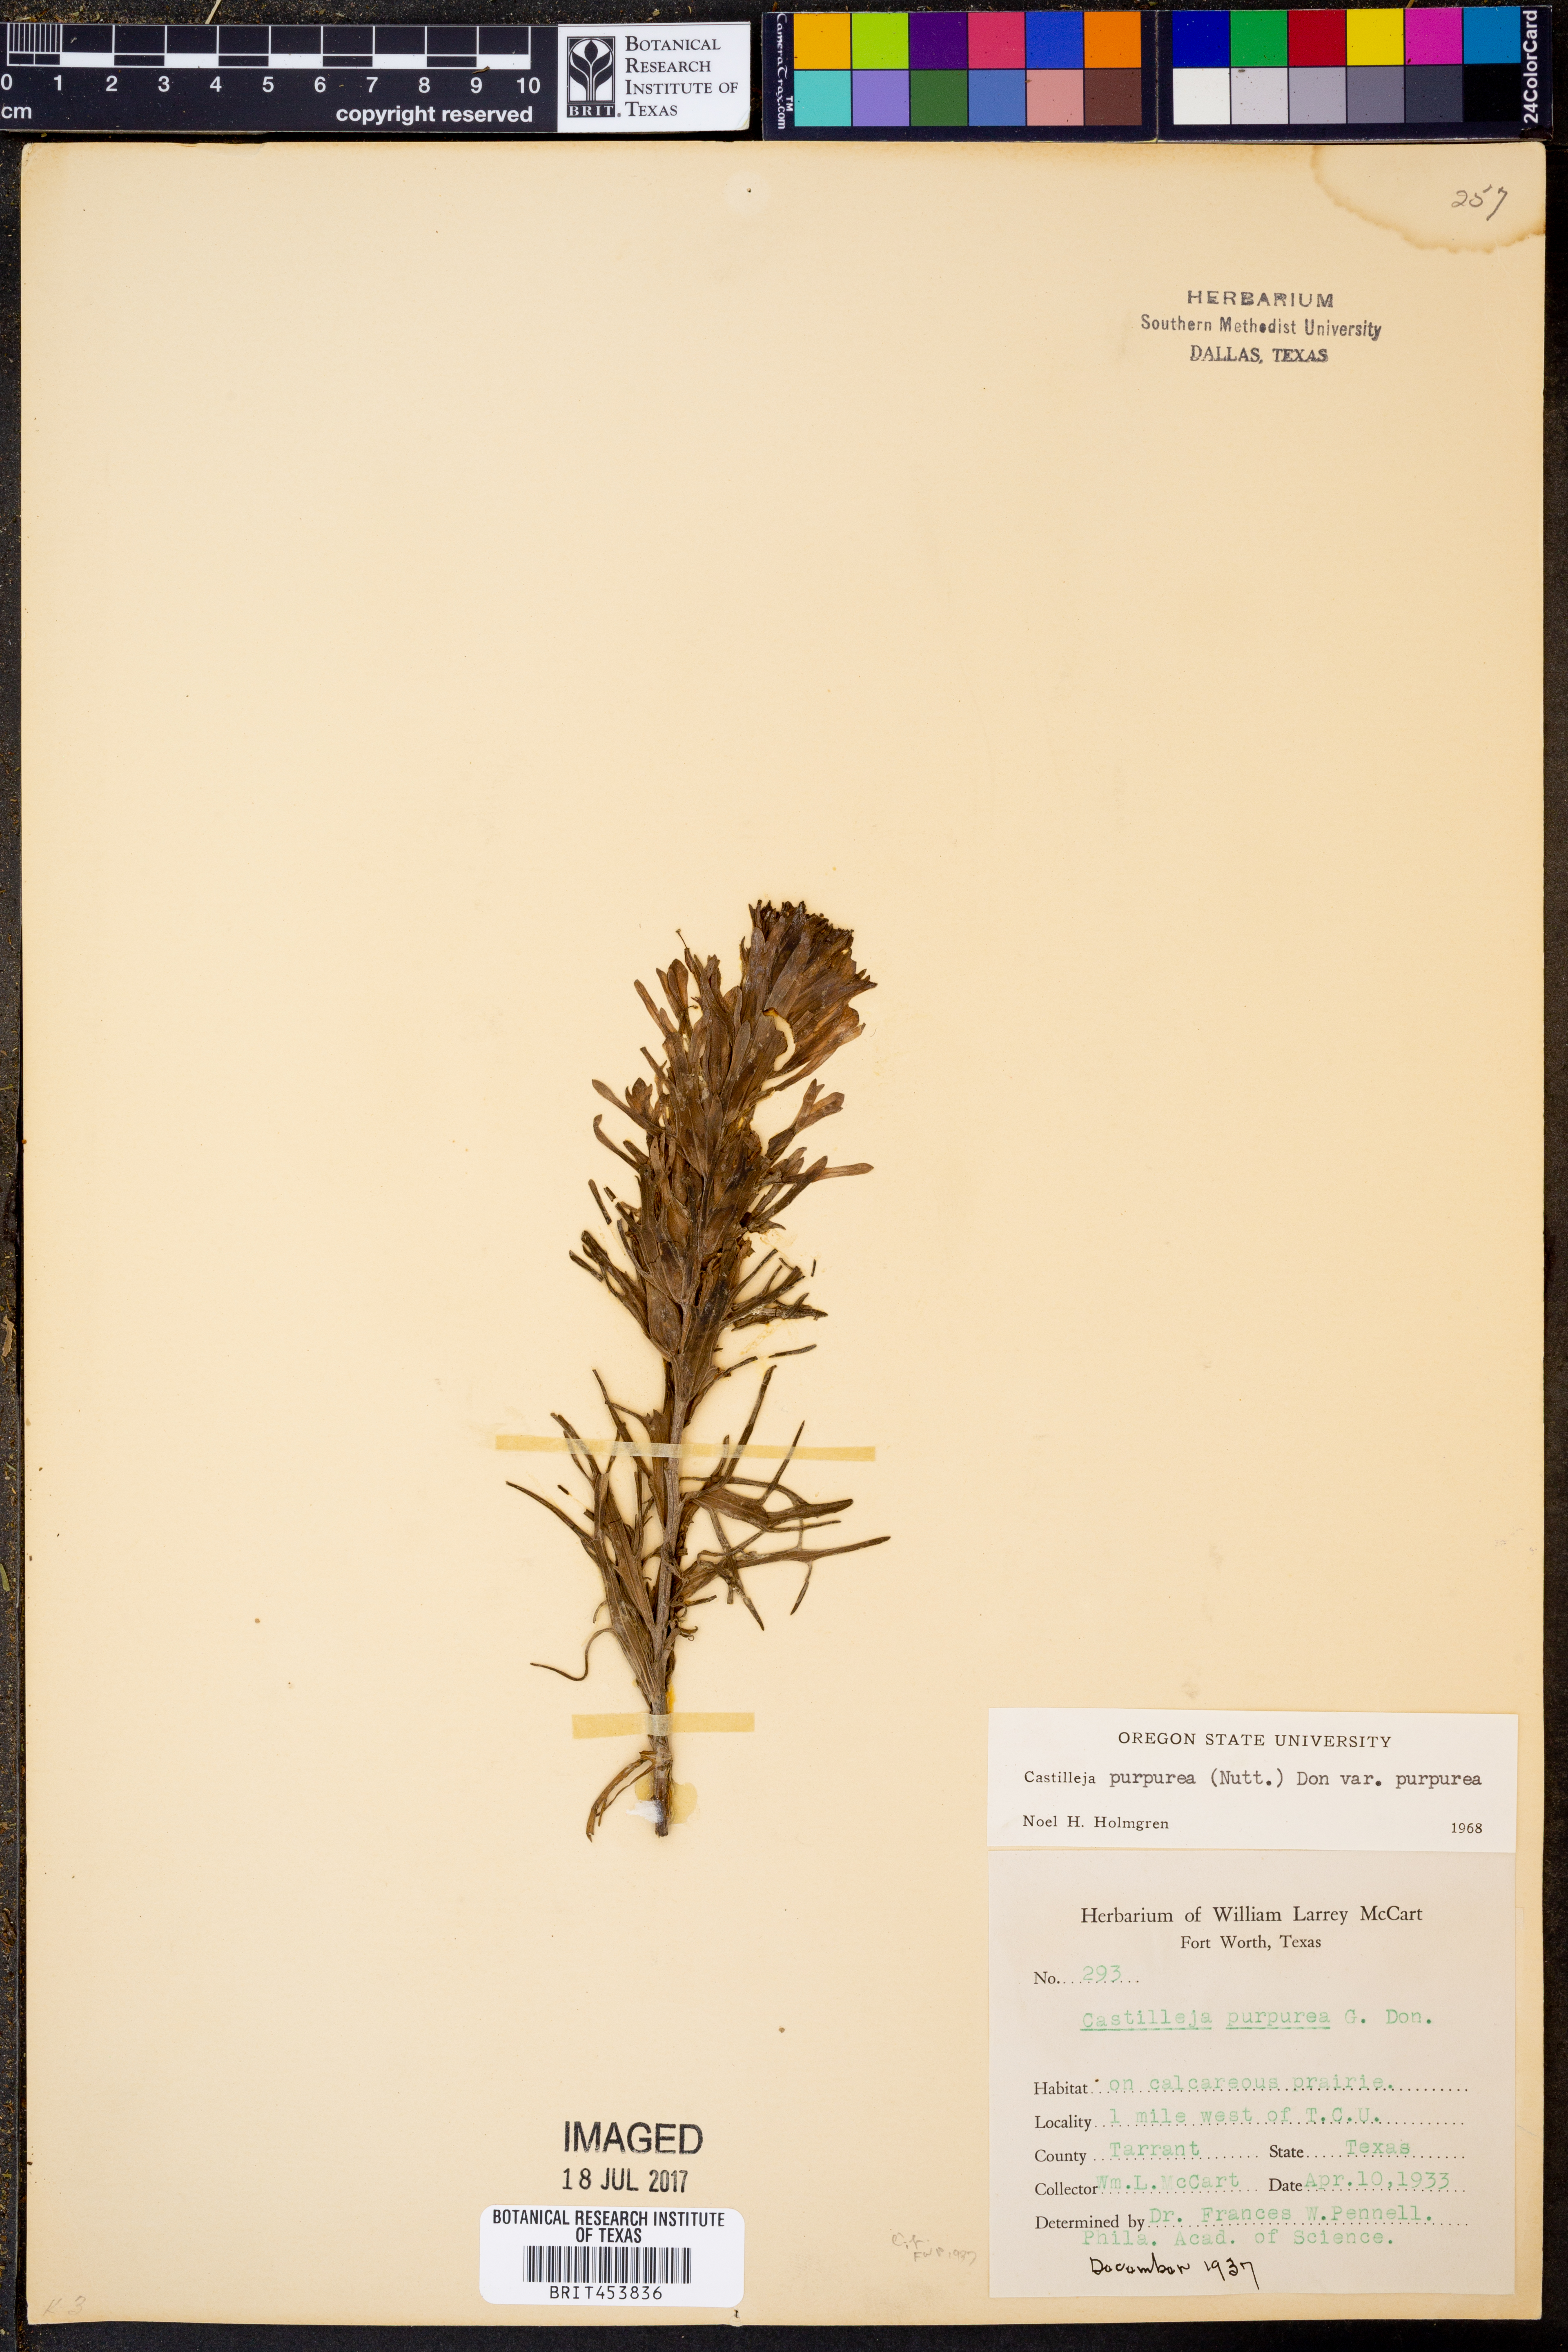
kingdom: Plantae
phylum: Tracheophyta
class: Magnoliopsida
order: Lamiales
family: Orobanchaceae
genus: Castilleja
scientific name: Castilleja purpurea
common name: Plains paintbrush
